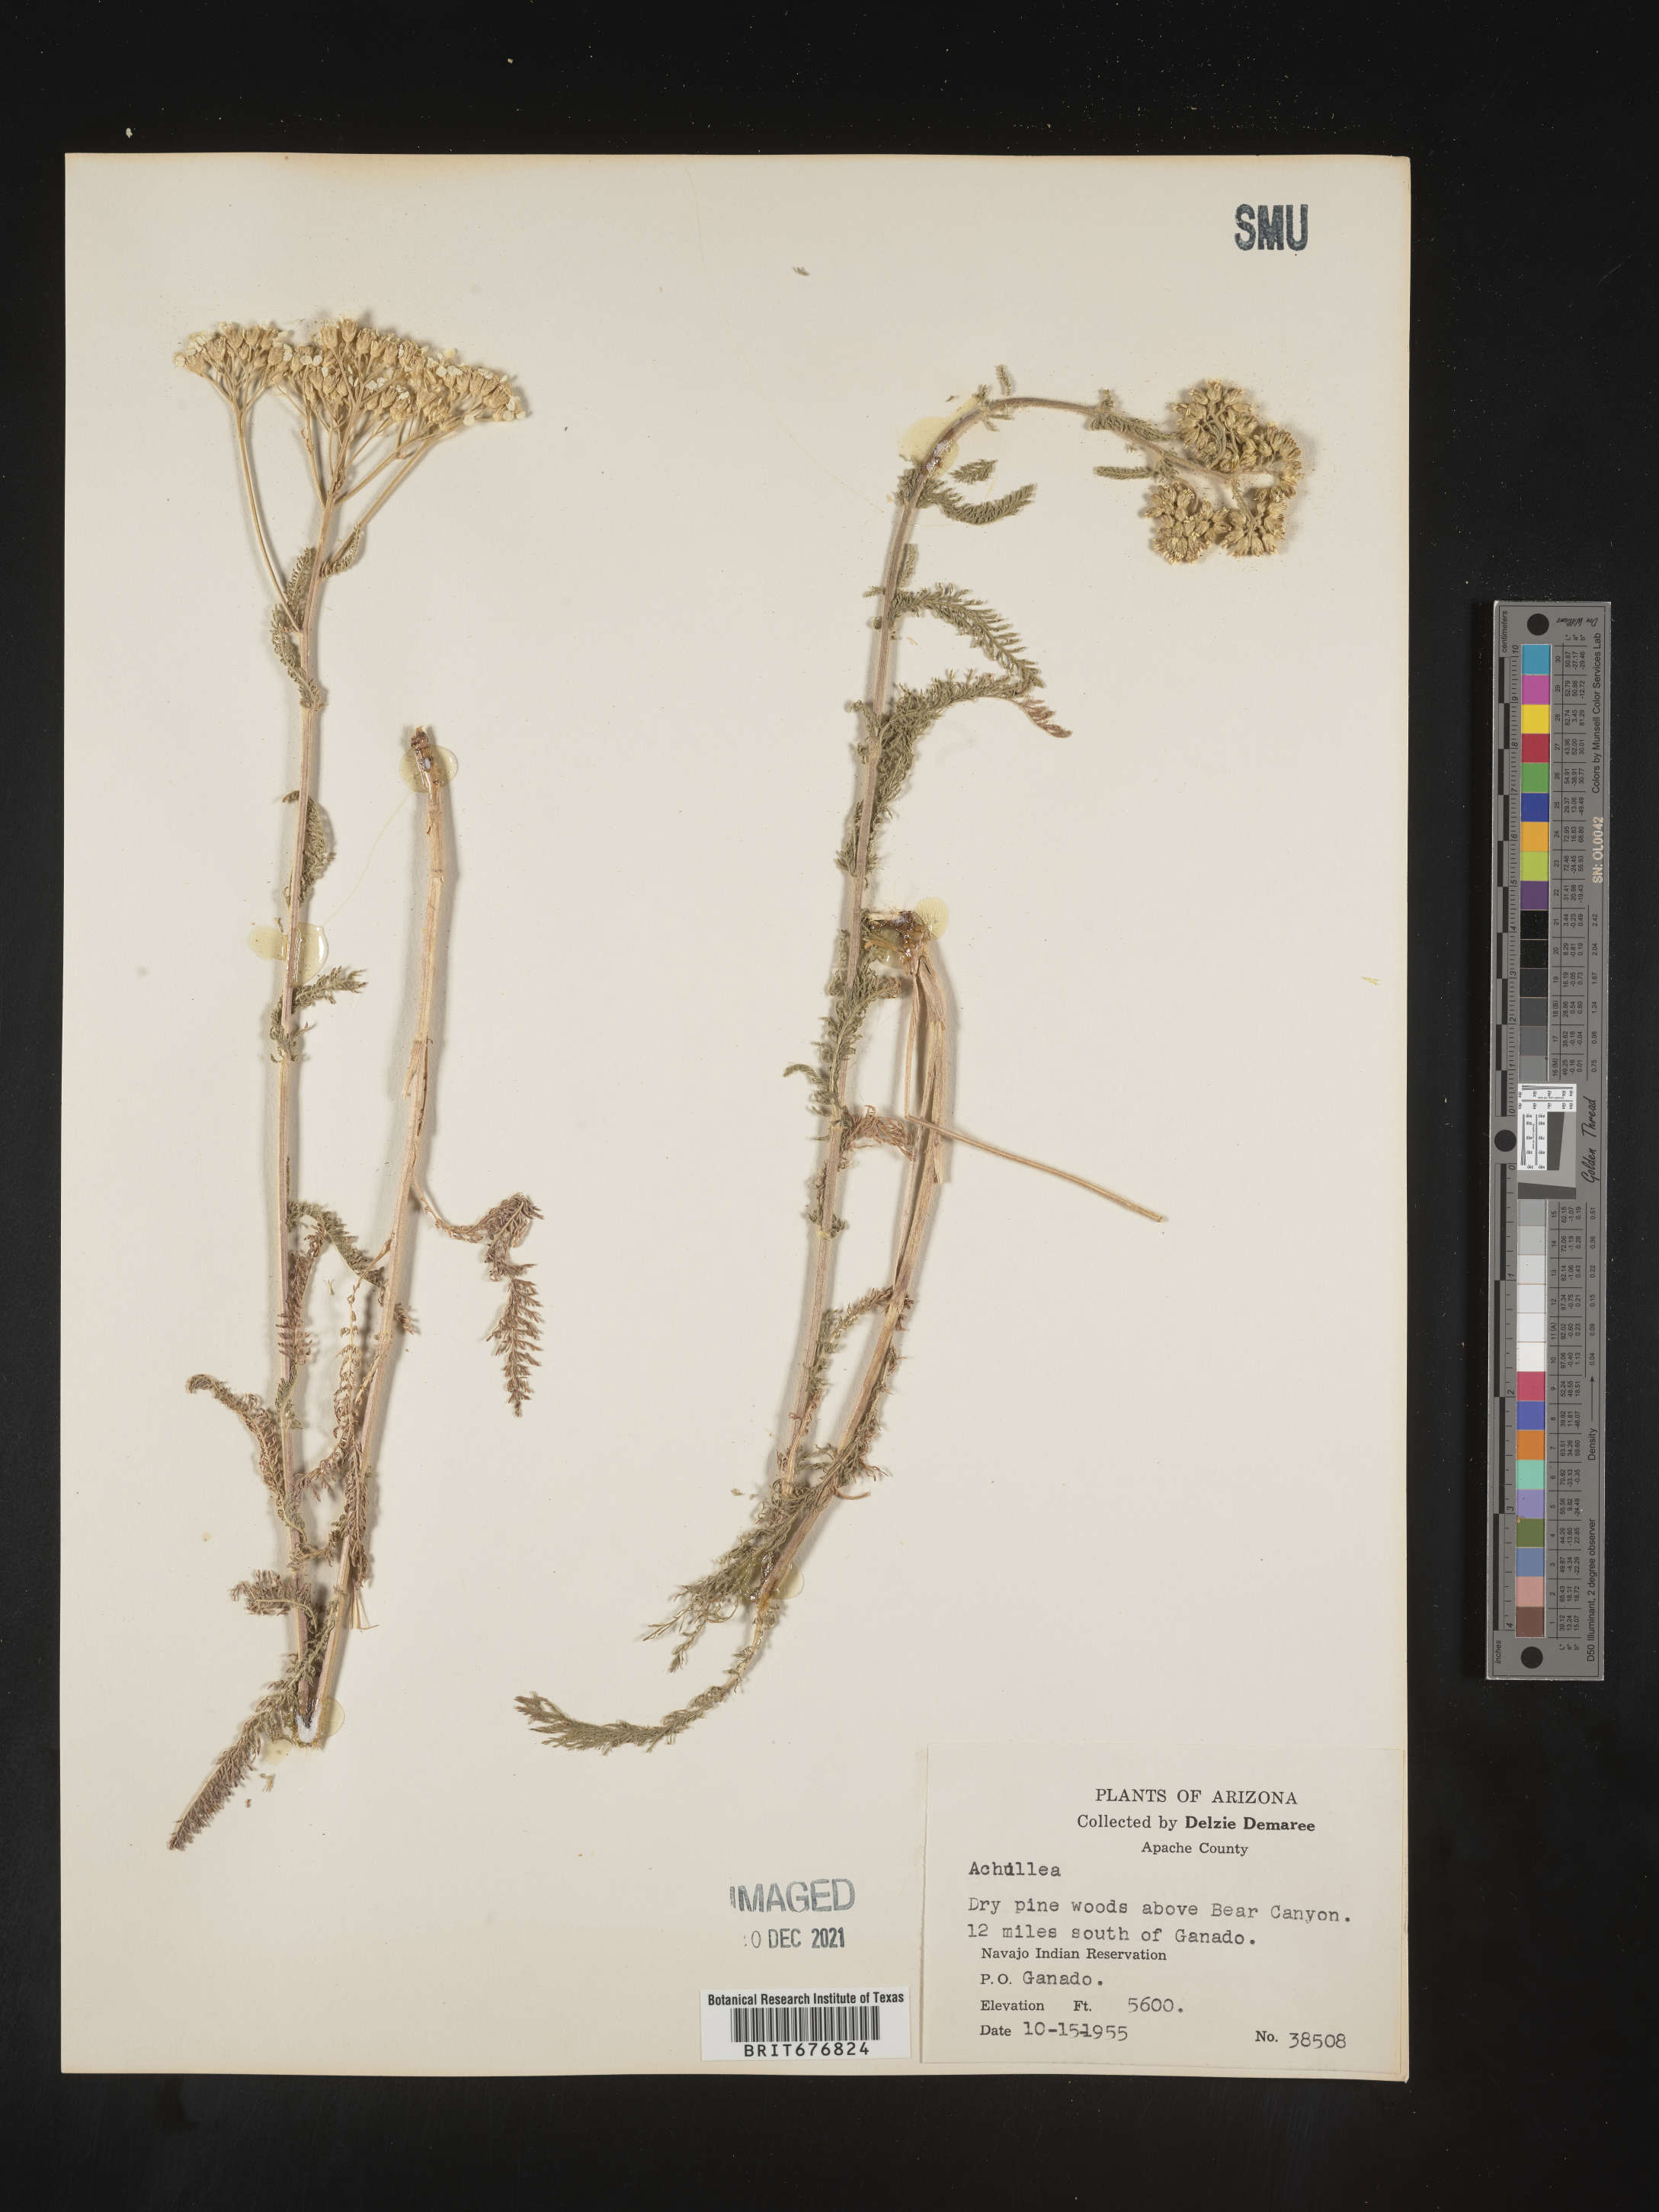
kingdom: Plantae
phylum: Tracheophyta
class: Magnoliopsida
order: Asterales
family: Asteraceae
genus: Achillea
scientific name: Achillea millefolium
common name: Yarrow
